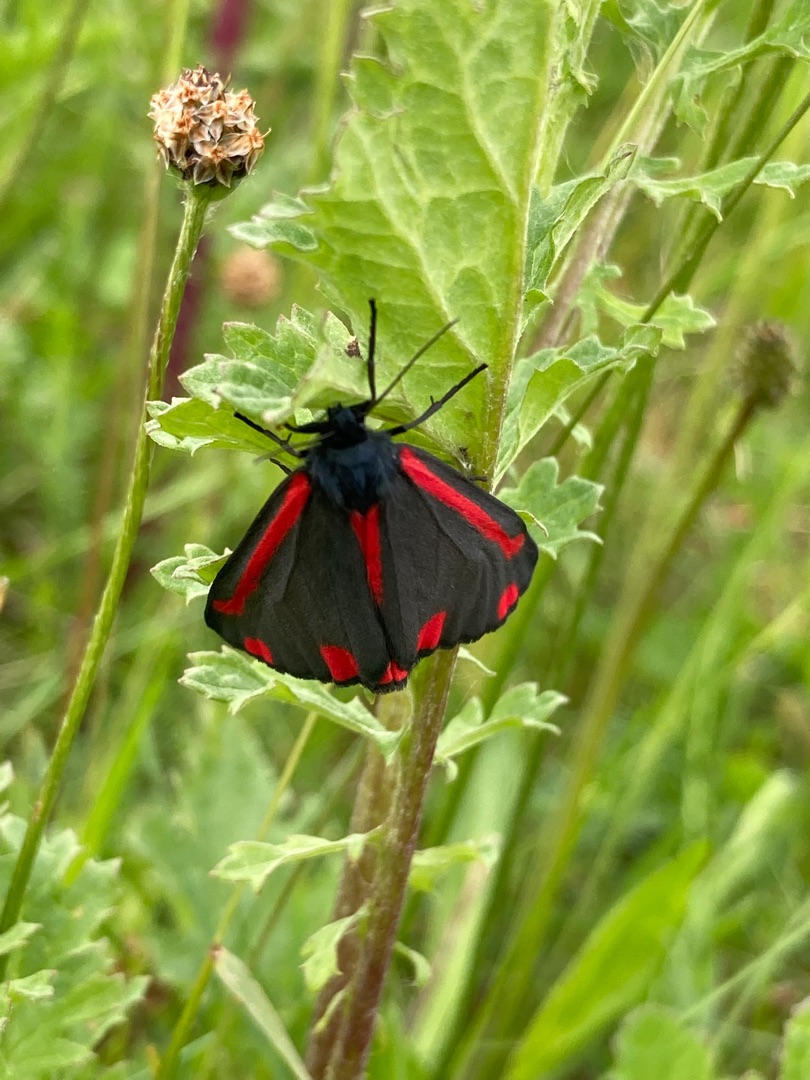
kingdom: Animalia
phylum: Arthropoda
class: Insecta
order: Lepidoptera
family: Erebidae
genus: Tyria
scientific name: Tyria jacobaeae
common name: Blodplet
